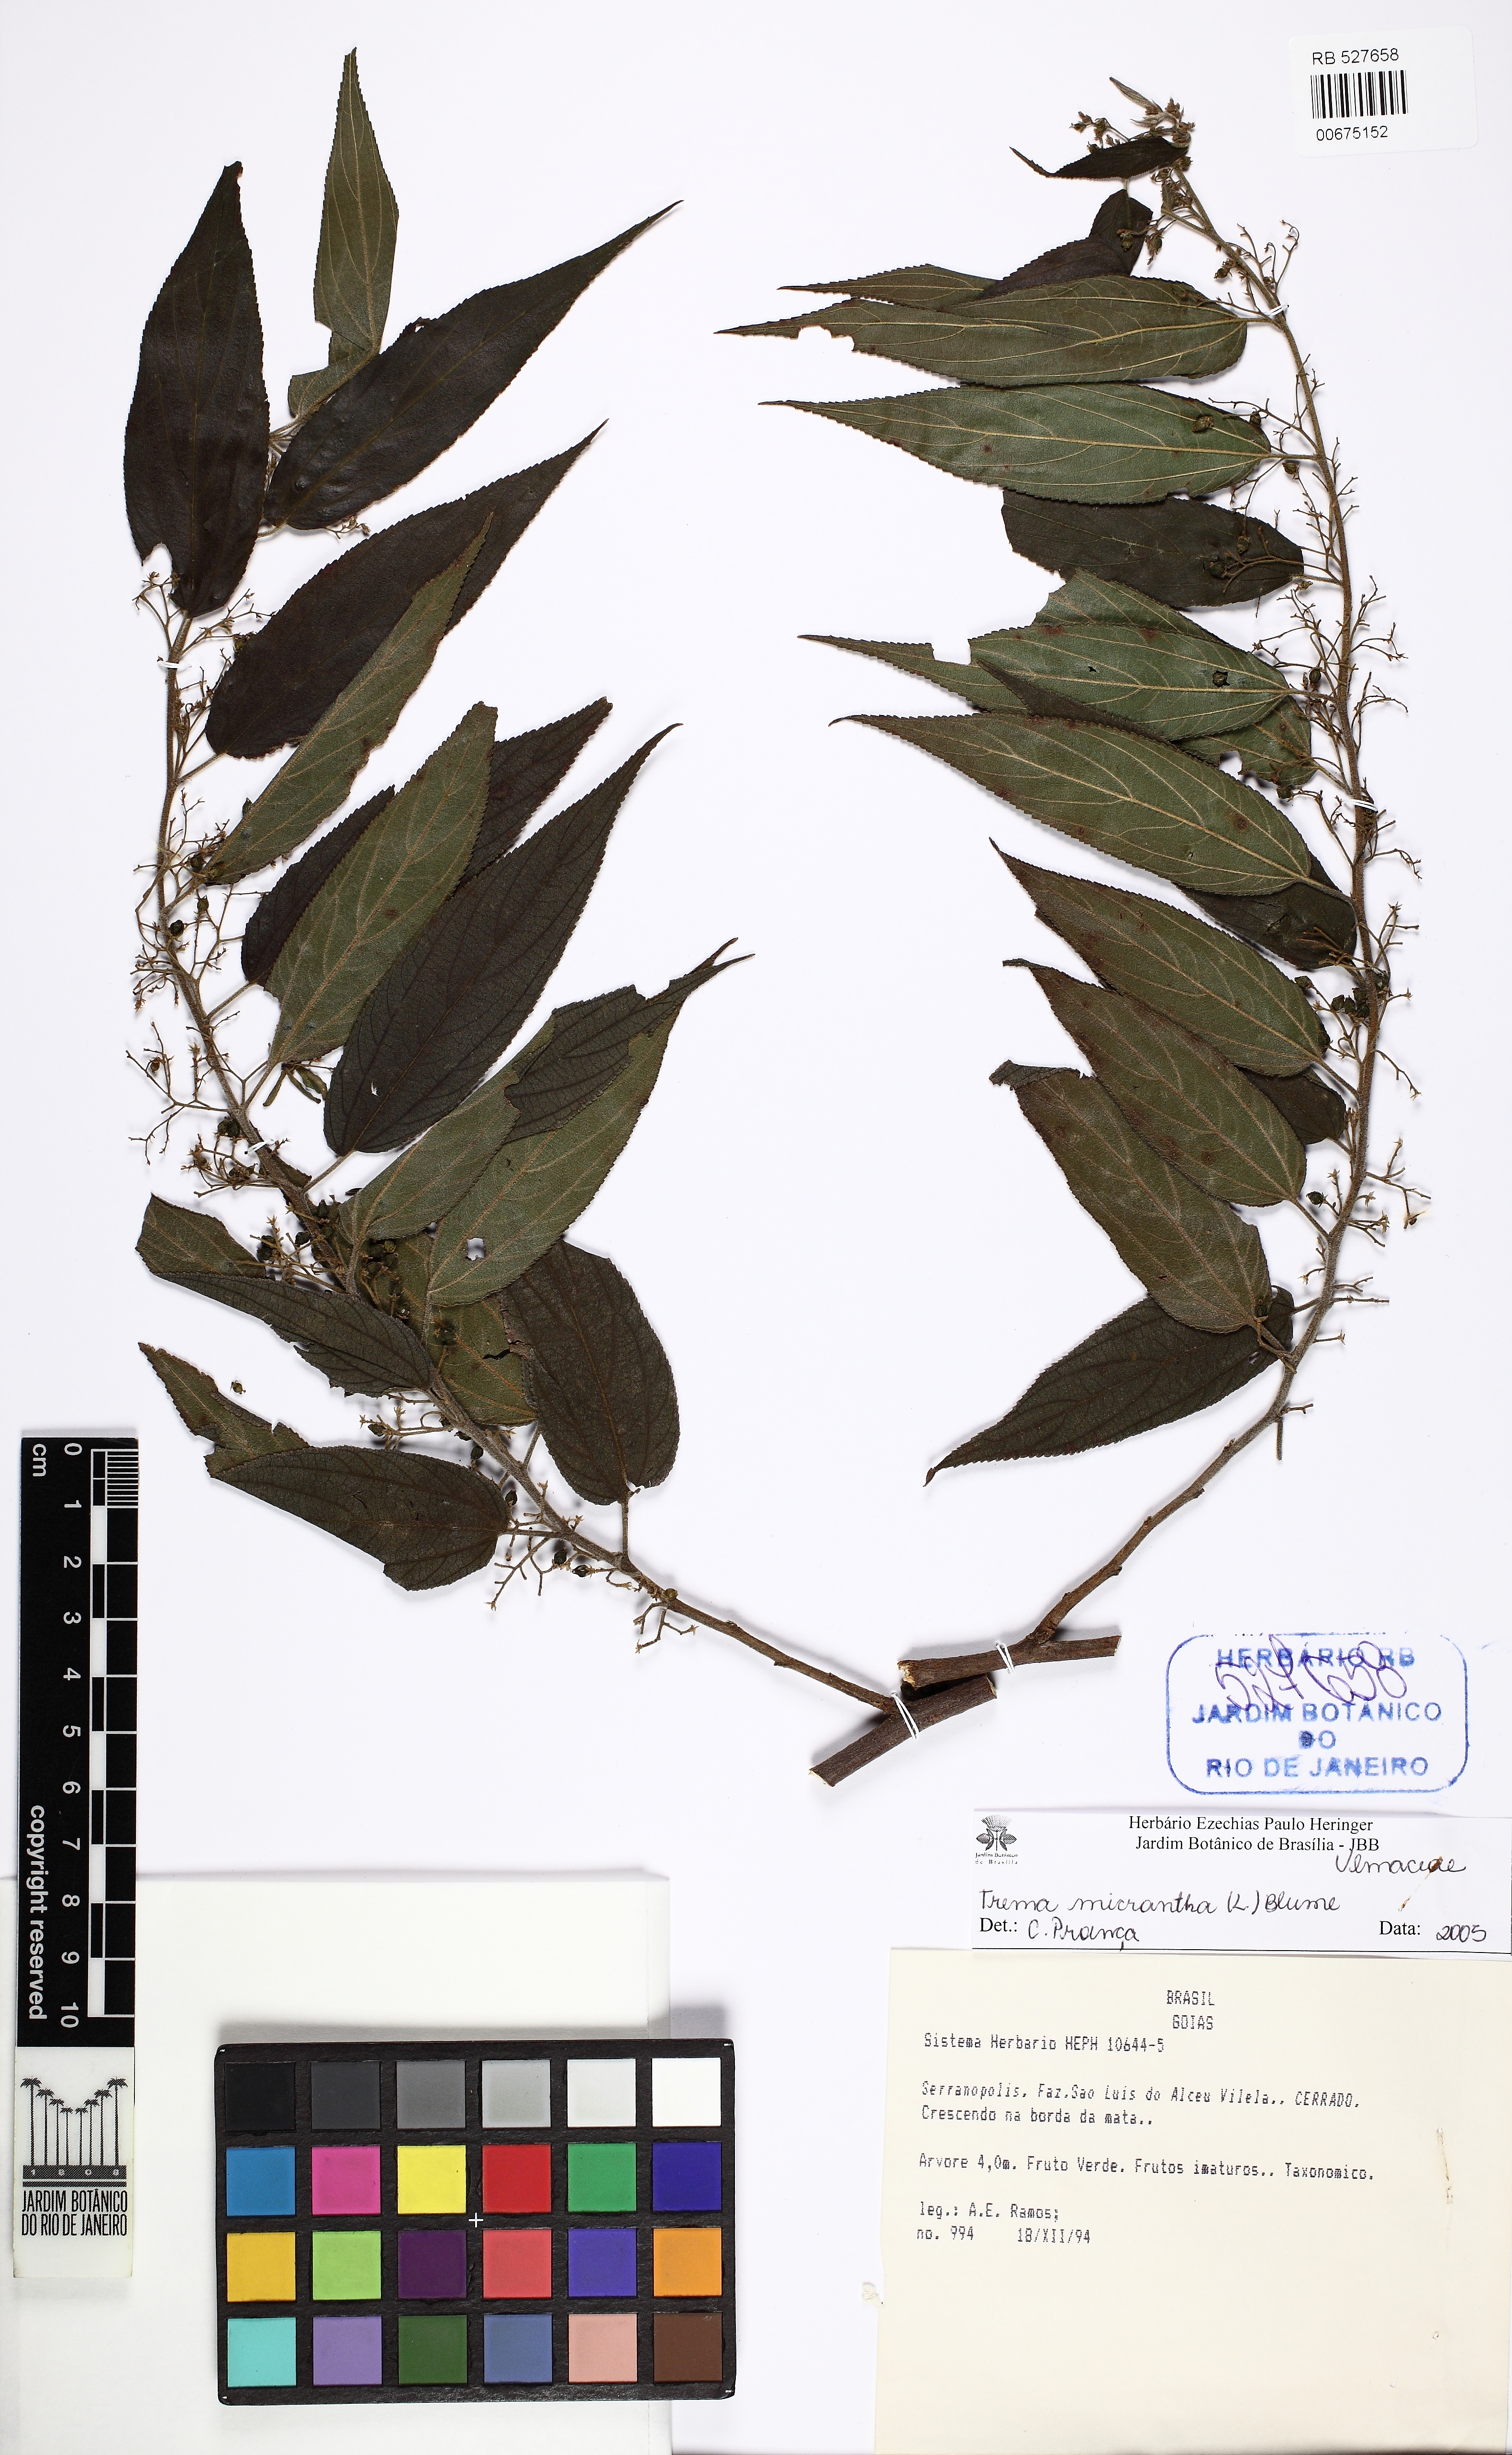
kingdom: Plantae
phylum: Tracheophyta
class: Magnoliopsida
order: Rosales
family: Cannabaceae
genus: Trema
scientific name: Trema micranthum
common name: Jamaican nettletree
